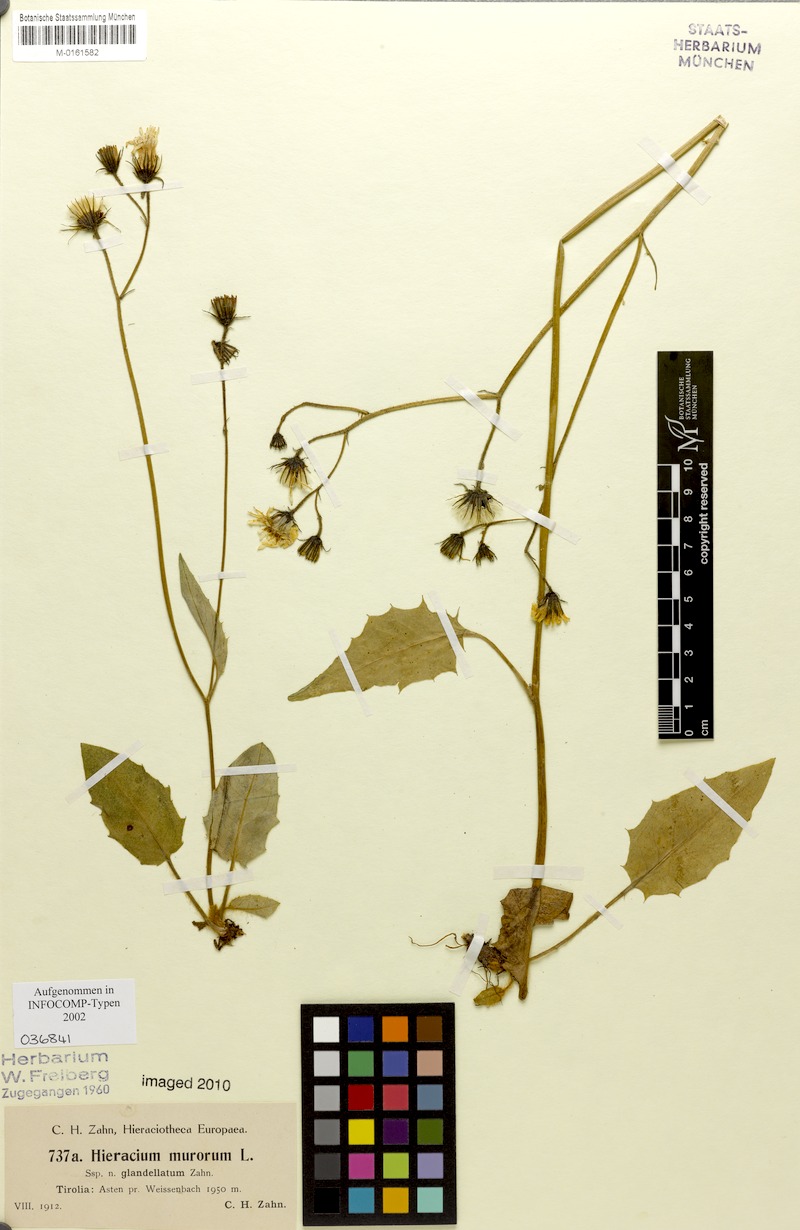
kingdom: Plantae
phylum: Tracheophyta
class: Magnoliopsida
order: Asterales
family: Asteraceae
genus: Hieracium
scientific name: Hieracium murorum
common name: Wall hawkweed
